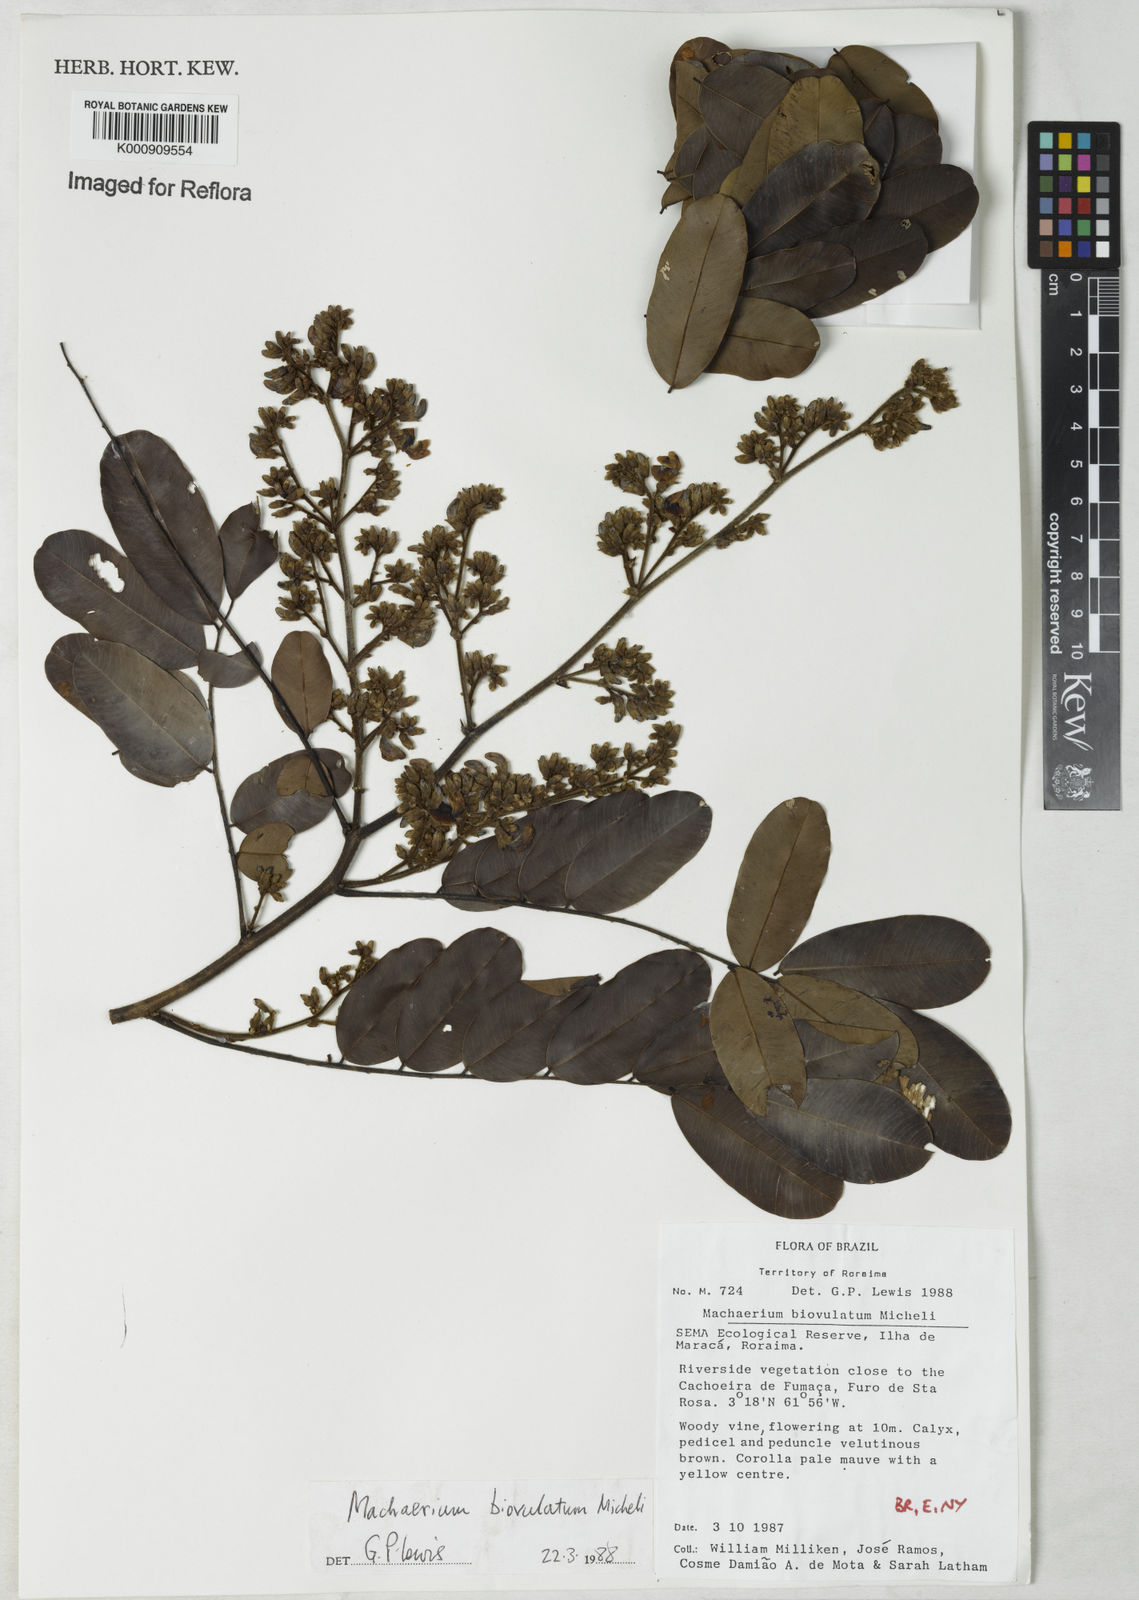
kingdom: Plantae
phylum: Tracheophyta
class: Magnoliopsida
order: Fabales
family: Fabaceae
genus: Machaerium
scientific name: Machaerium biovulatum
